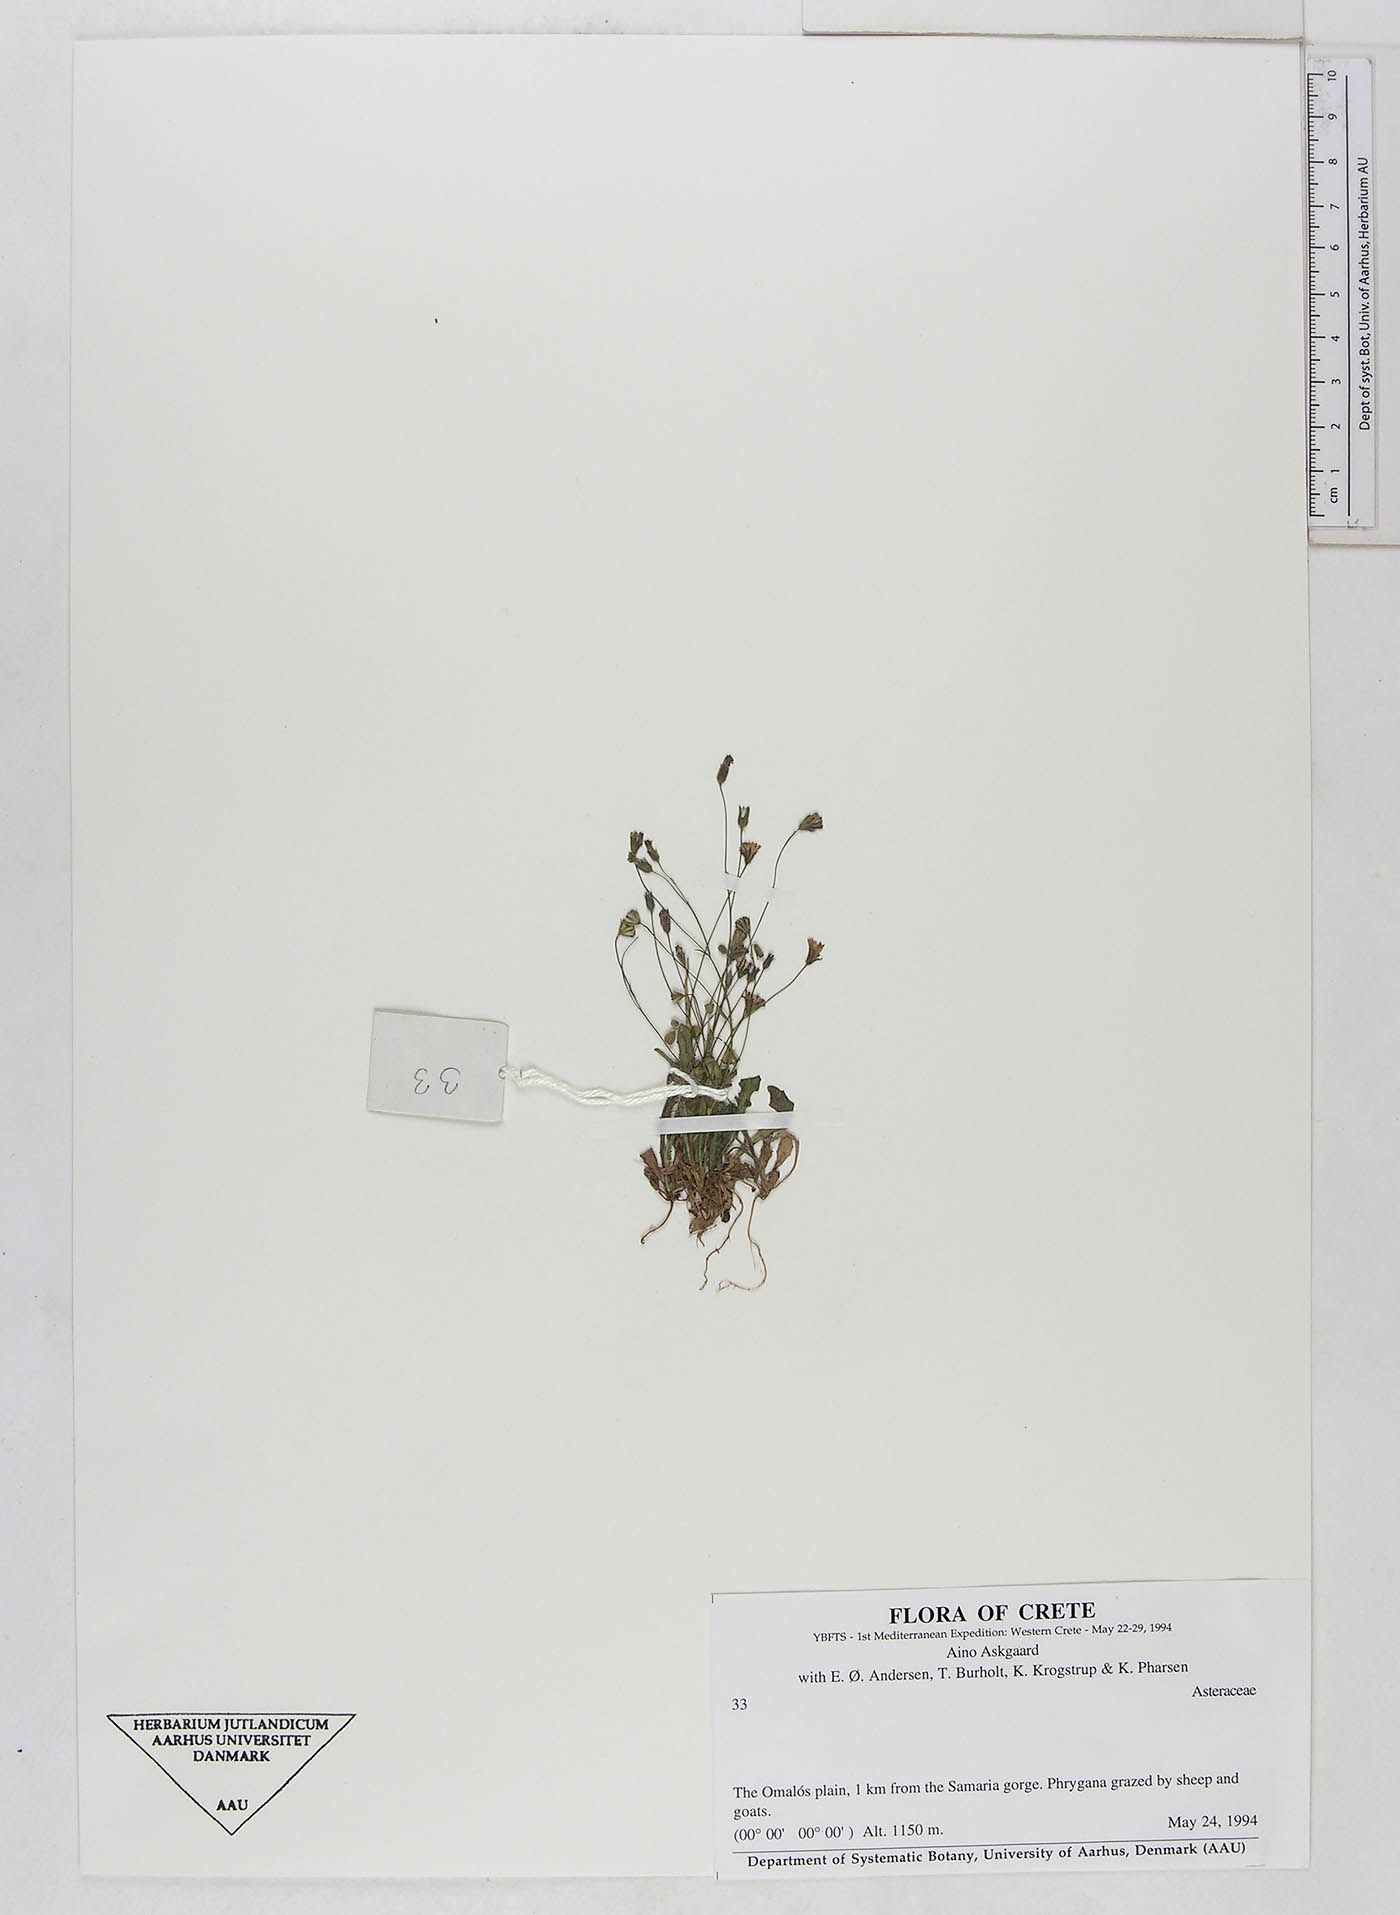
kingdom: Plantae
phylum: Tracheophyta
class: Magnoliopsida
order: Asterales
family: Asteraceae
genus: Crepis
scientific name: Crepis neglecta
